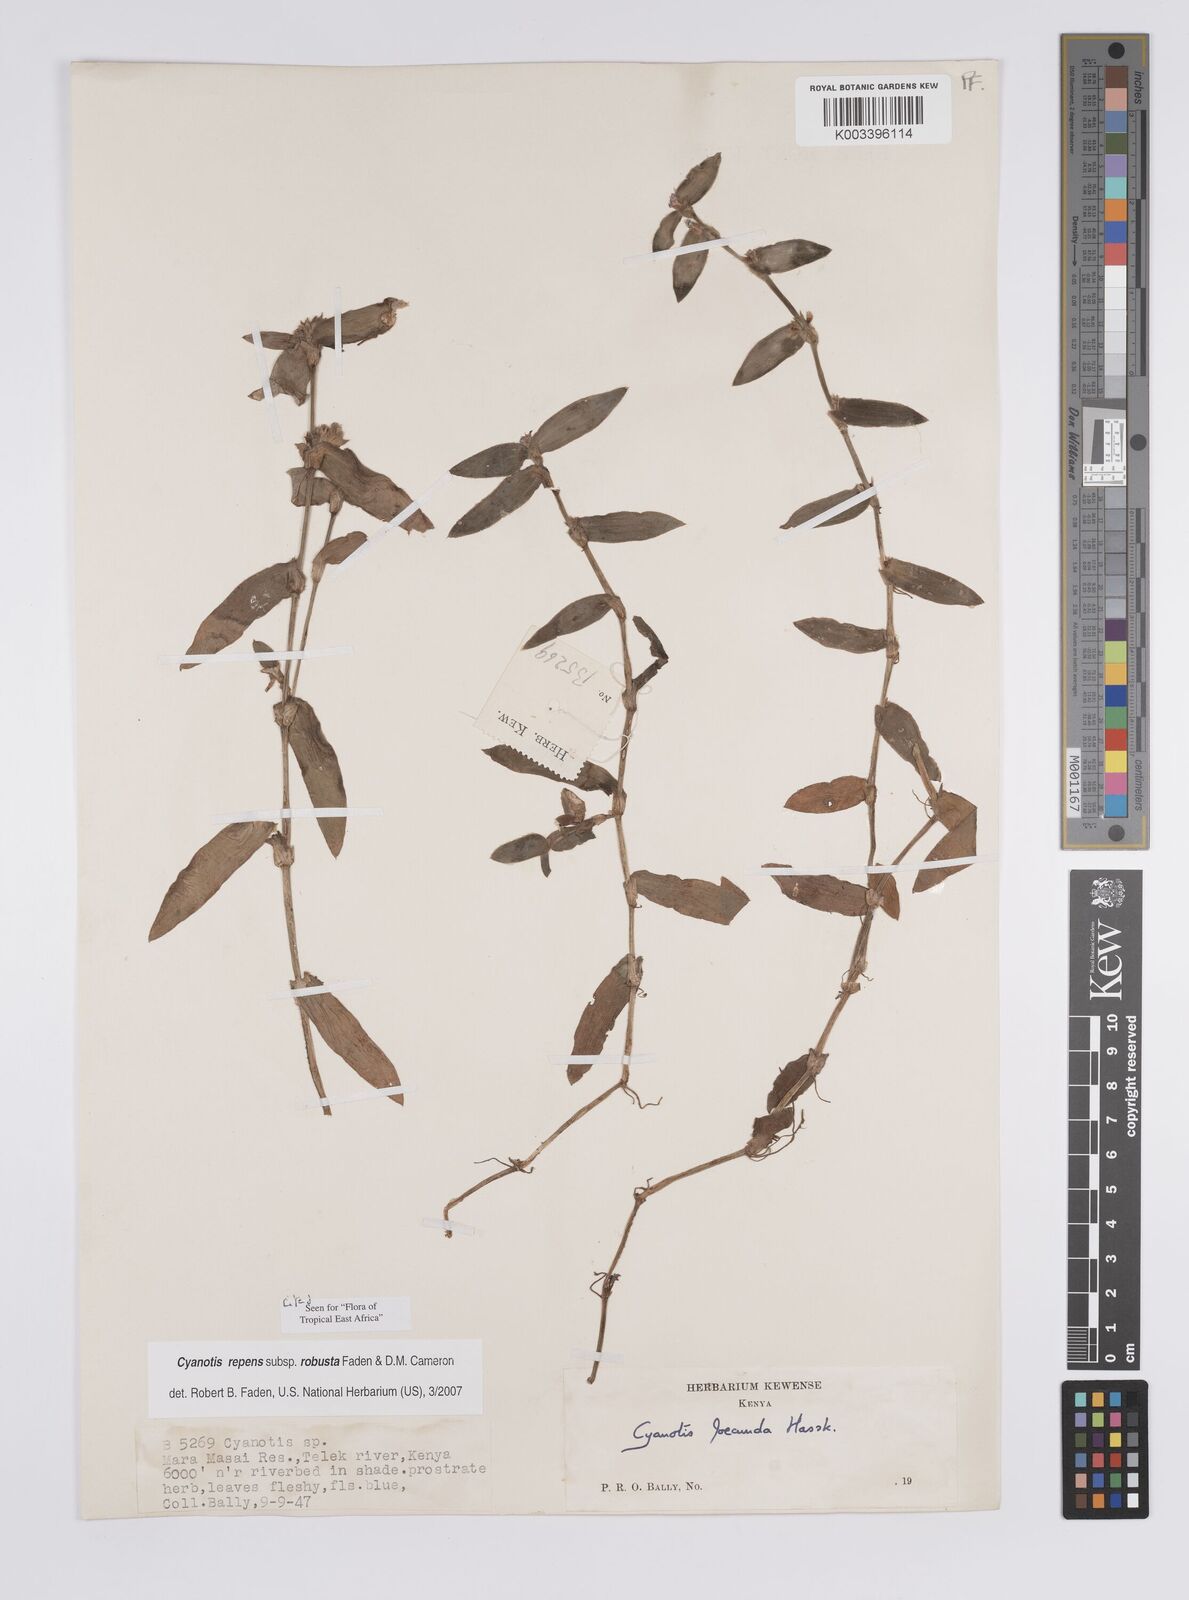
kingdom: Plantae
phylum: Tracheophyta
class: Liliopsida
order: Commelinales
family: Commelinaceae
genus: Cyanotis
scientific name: Cyanotis repens
